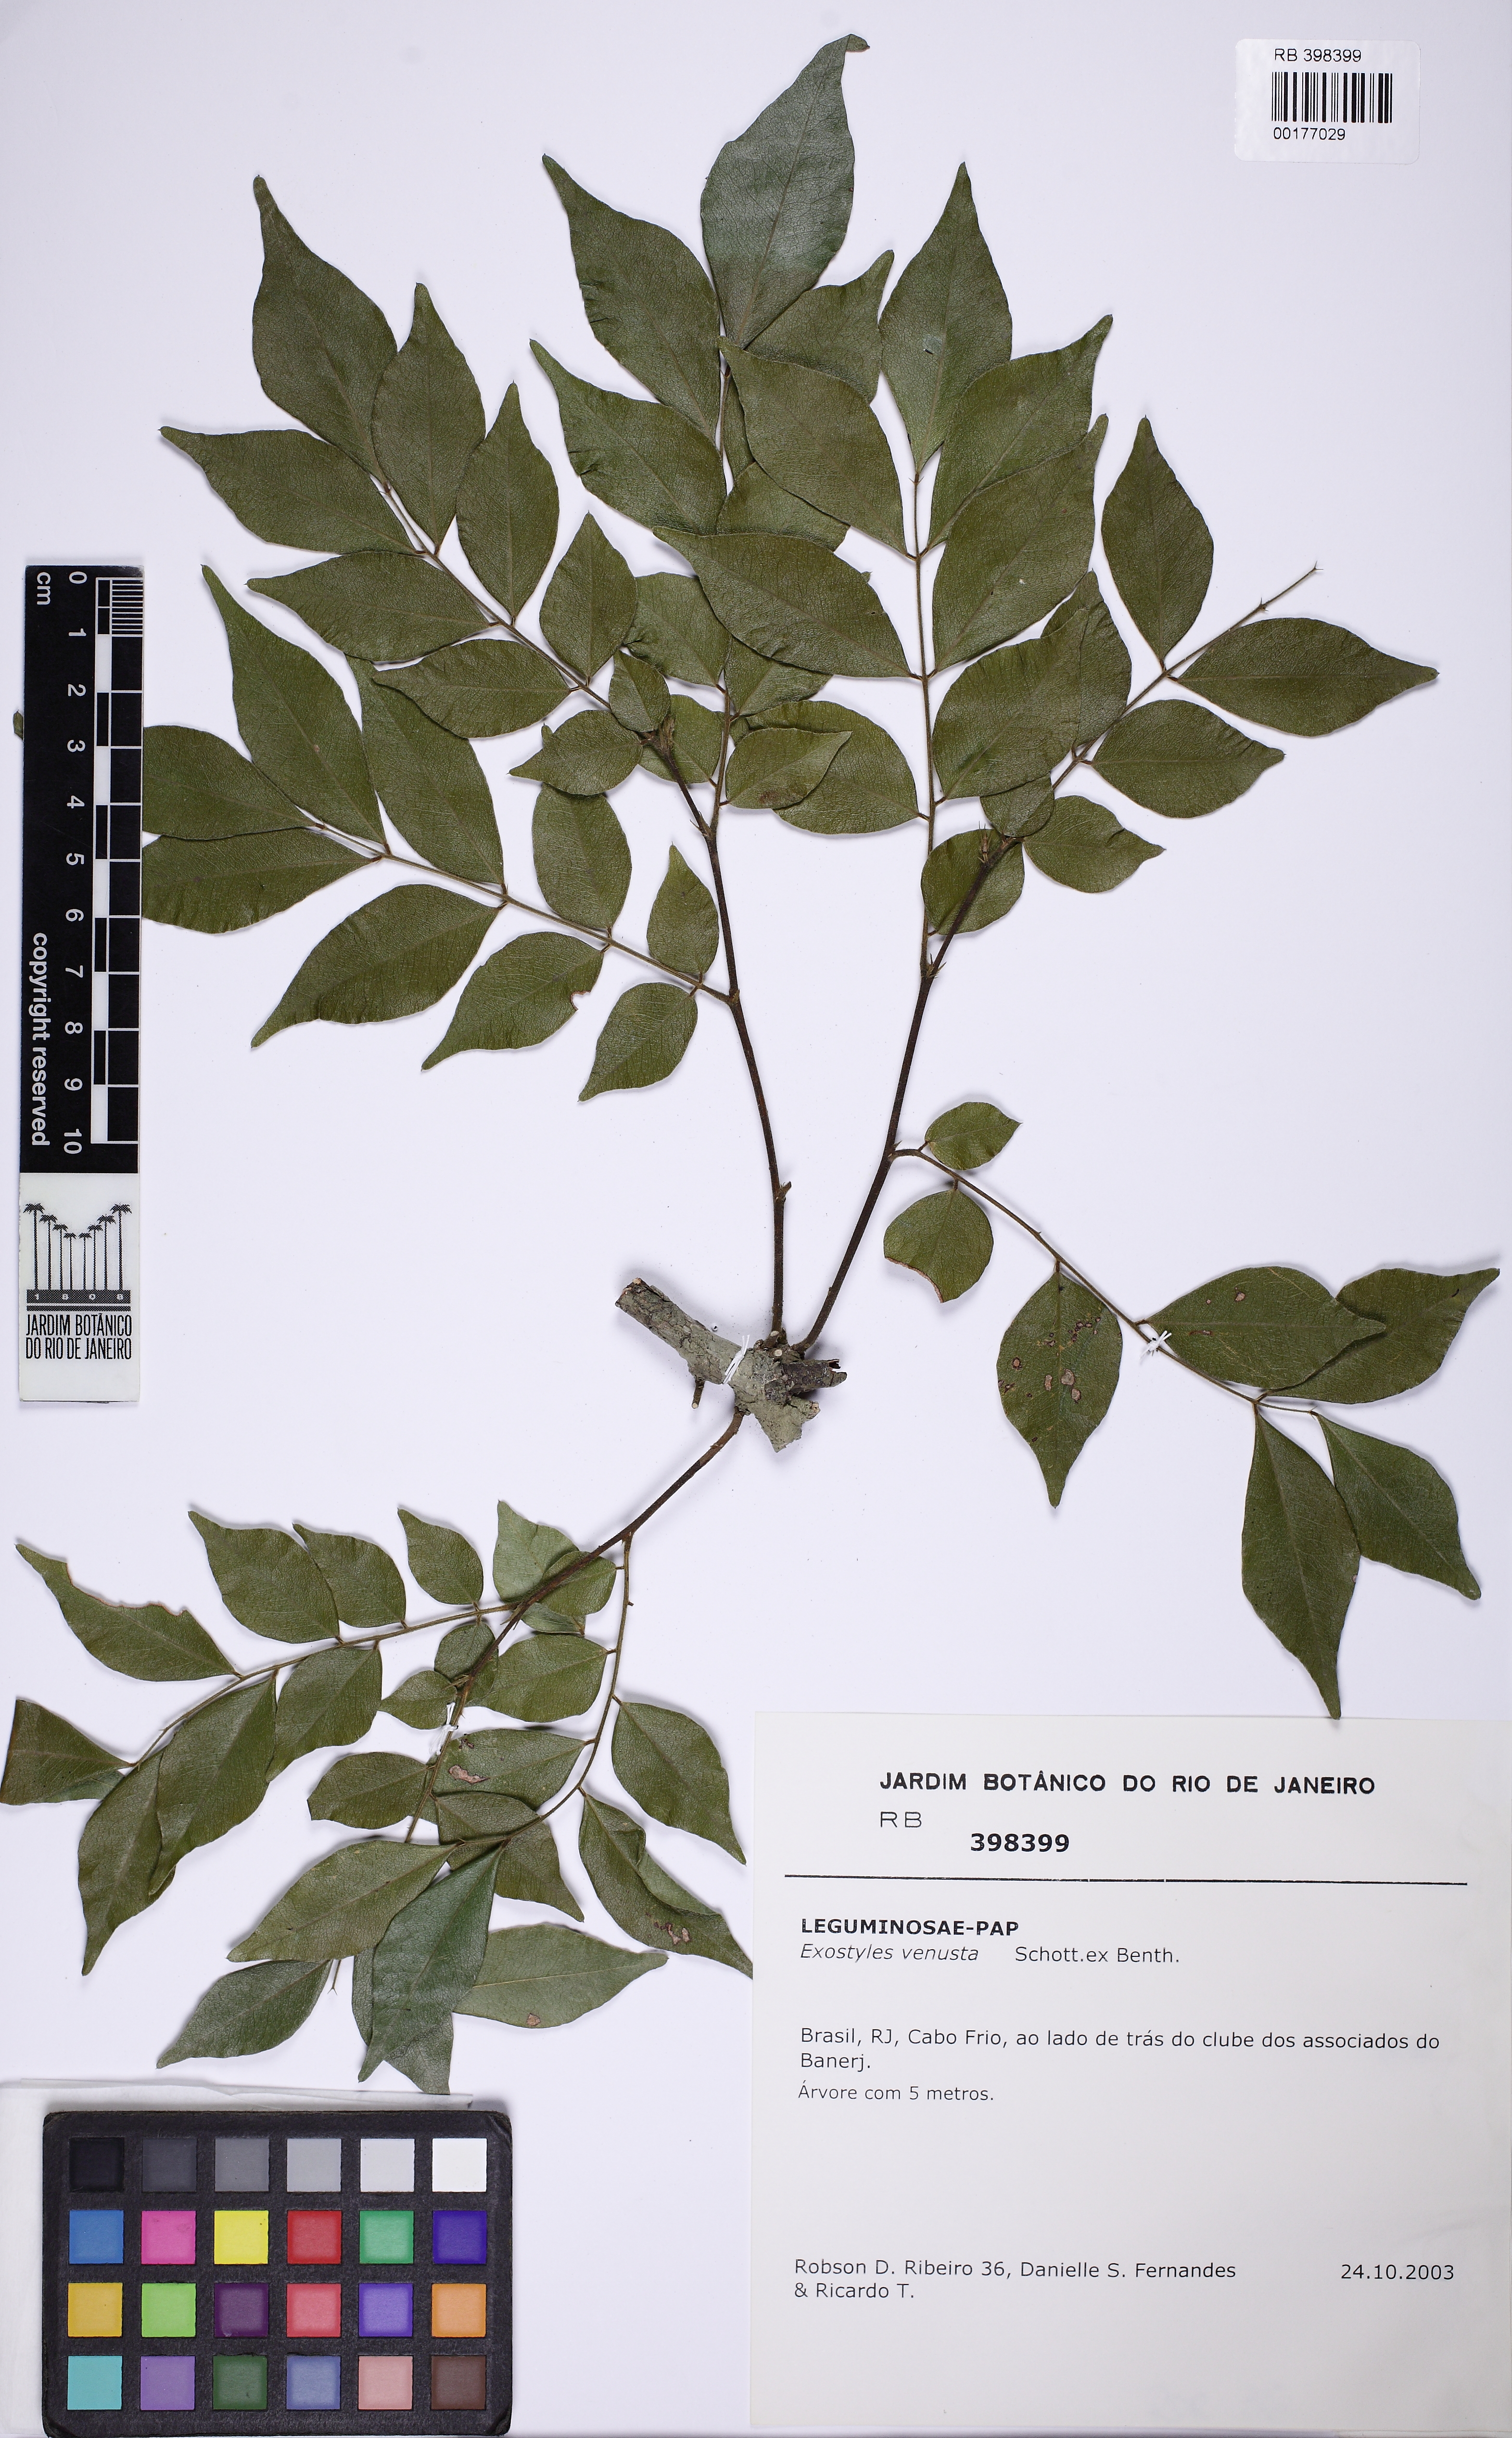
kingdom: Plantae
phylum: Tracheophyta
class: Magnoliopsida
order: Fabales
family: Fabaceae
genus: Exostyles
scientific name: Exostyles venusta
